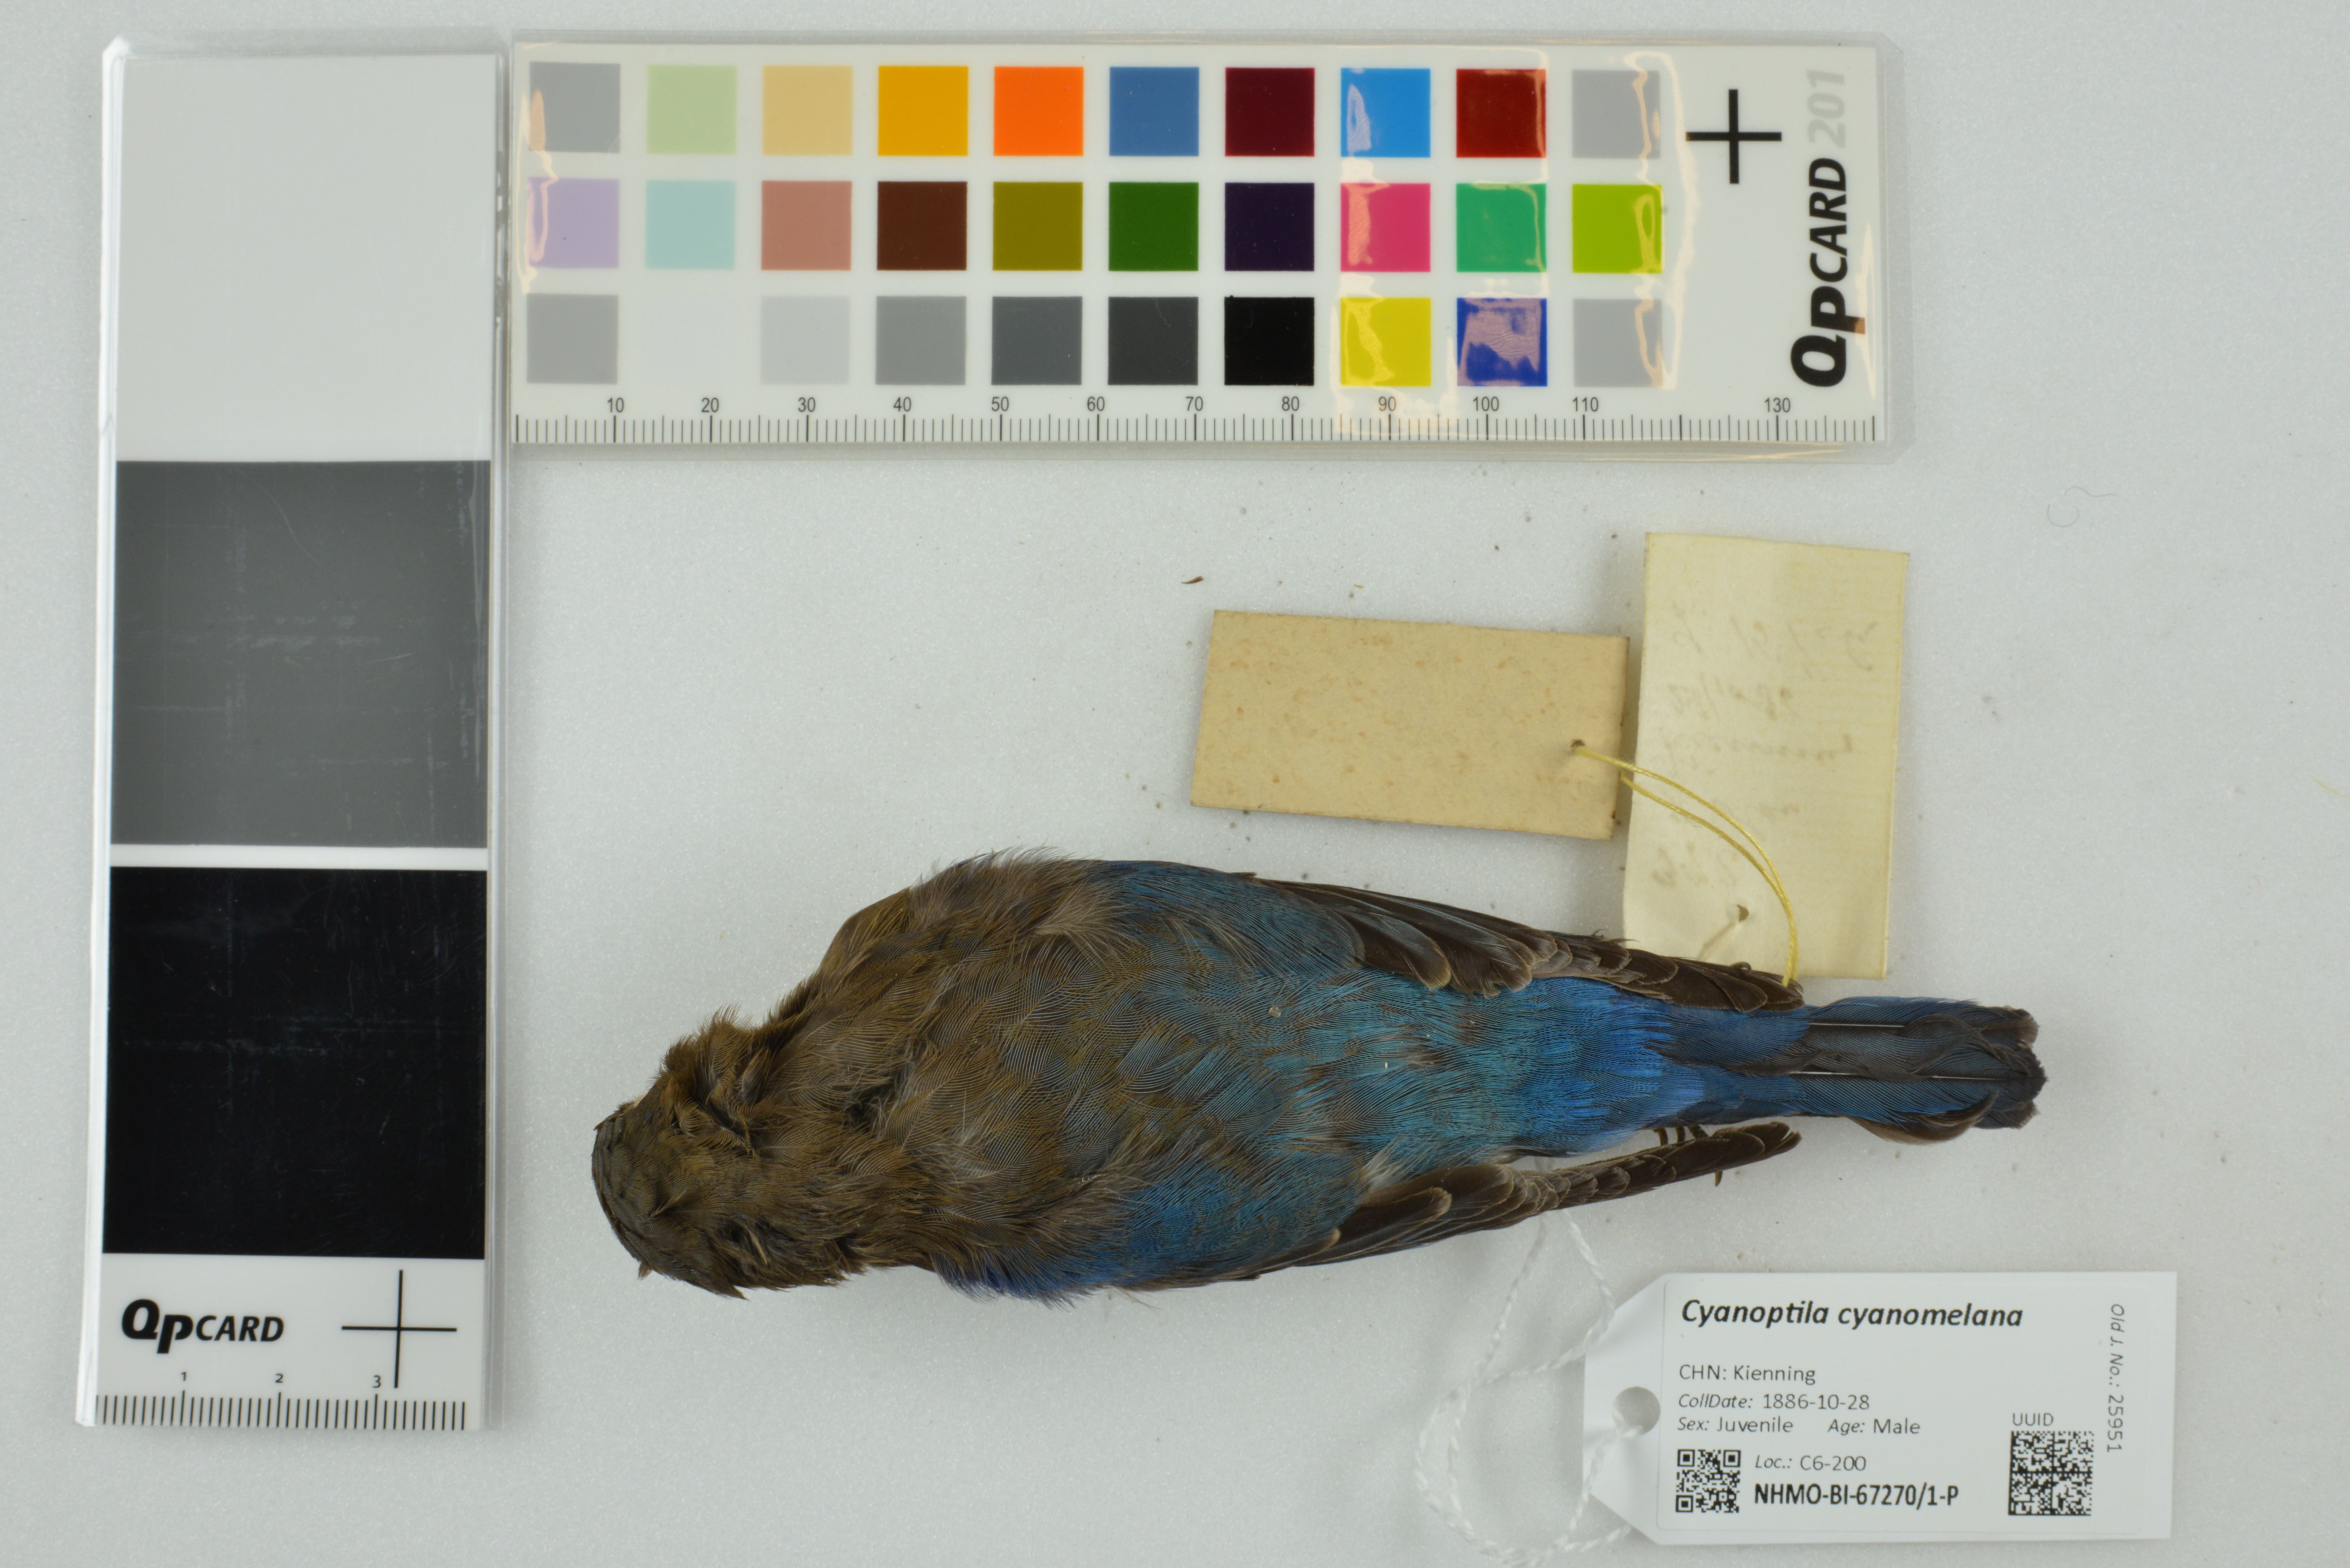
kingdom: Animalia
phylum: Chordata
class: Aves
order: Passeriformes
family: Muscicapidae
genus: Cyanoptila
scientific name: Cyanoptila cyanomelana
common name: Blue-and-white flycatcher
